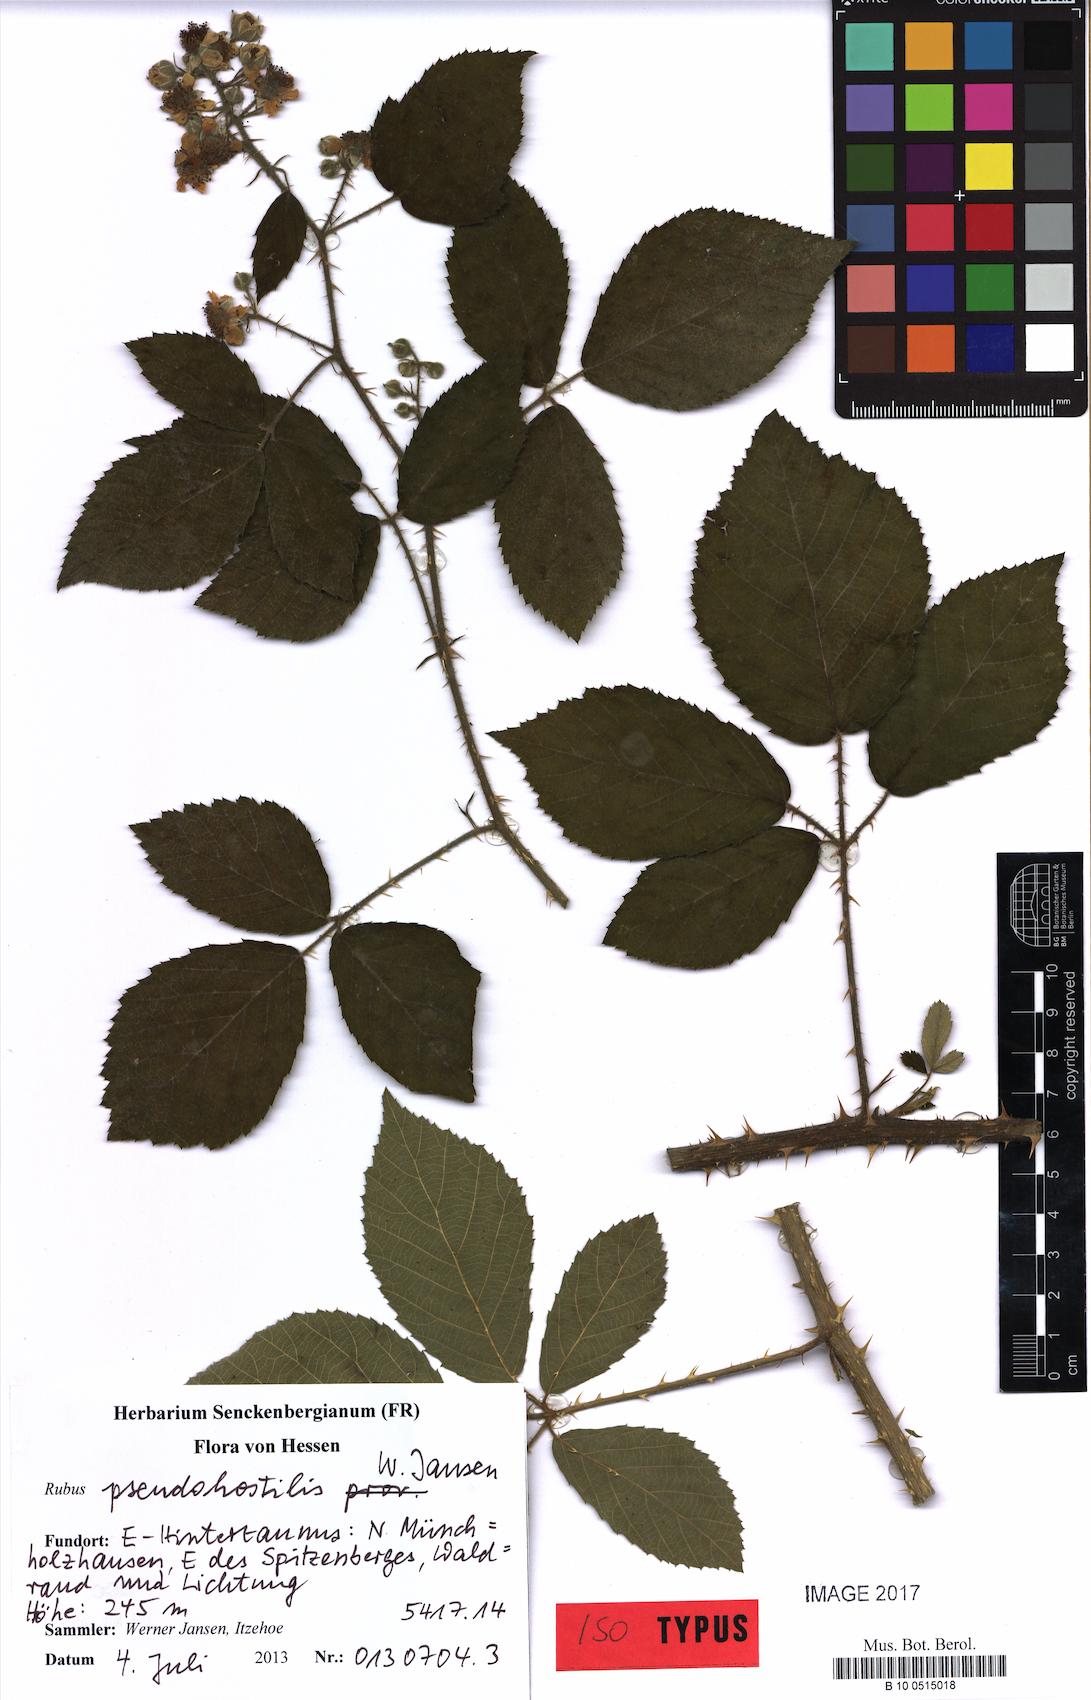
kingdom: Plantae
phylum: Tracheophyta
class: Magnoliopsida
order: Rosales
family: Rosaceae
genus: Rubus
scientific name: Rubus pseudohostilis
